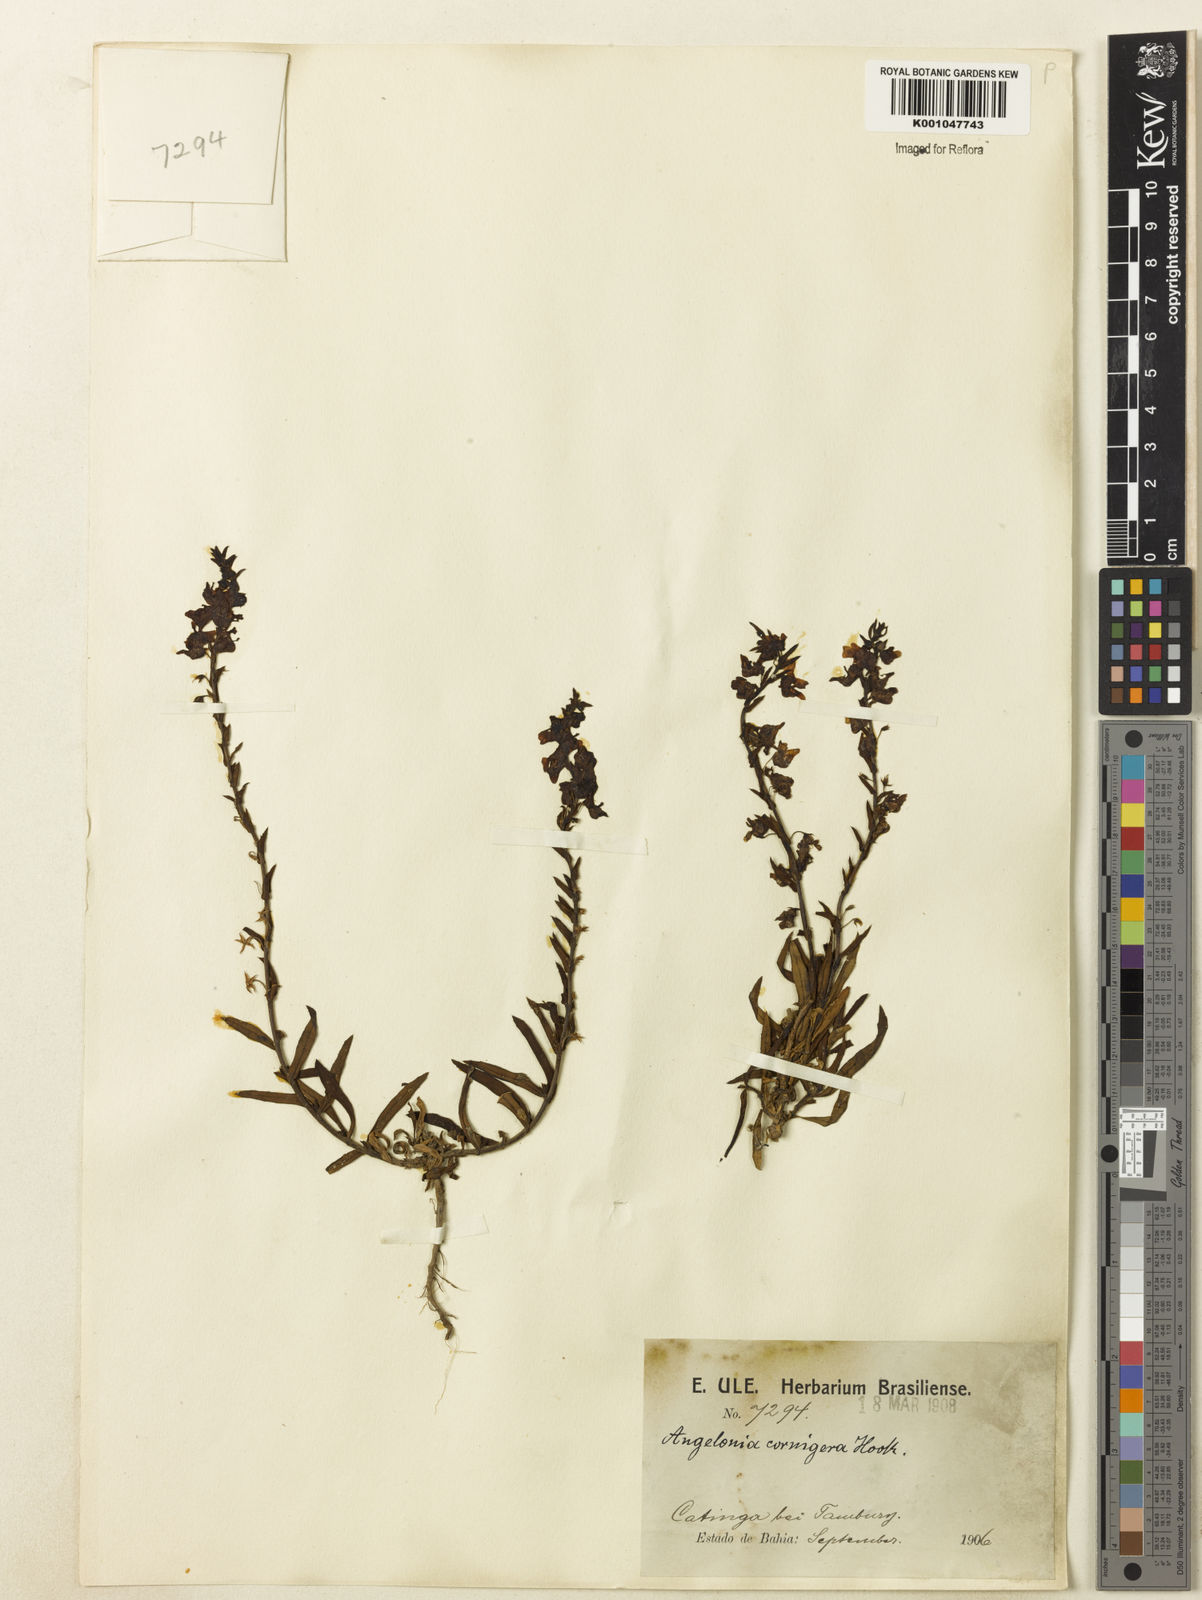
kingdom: Plantae
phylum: Tracheophyta
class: Magnoliopsida
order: Lamiales
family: Plantaginaceae
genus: Angelonia
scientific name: Angelonia cornigera
